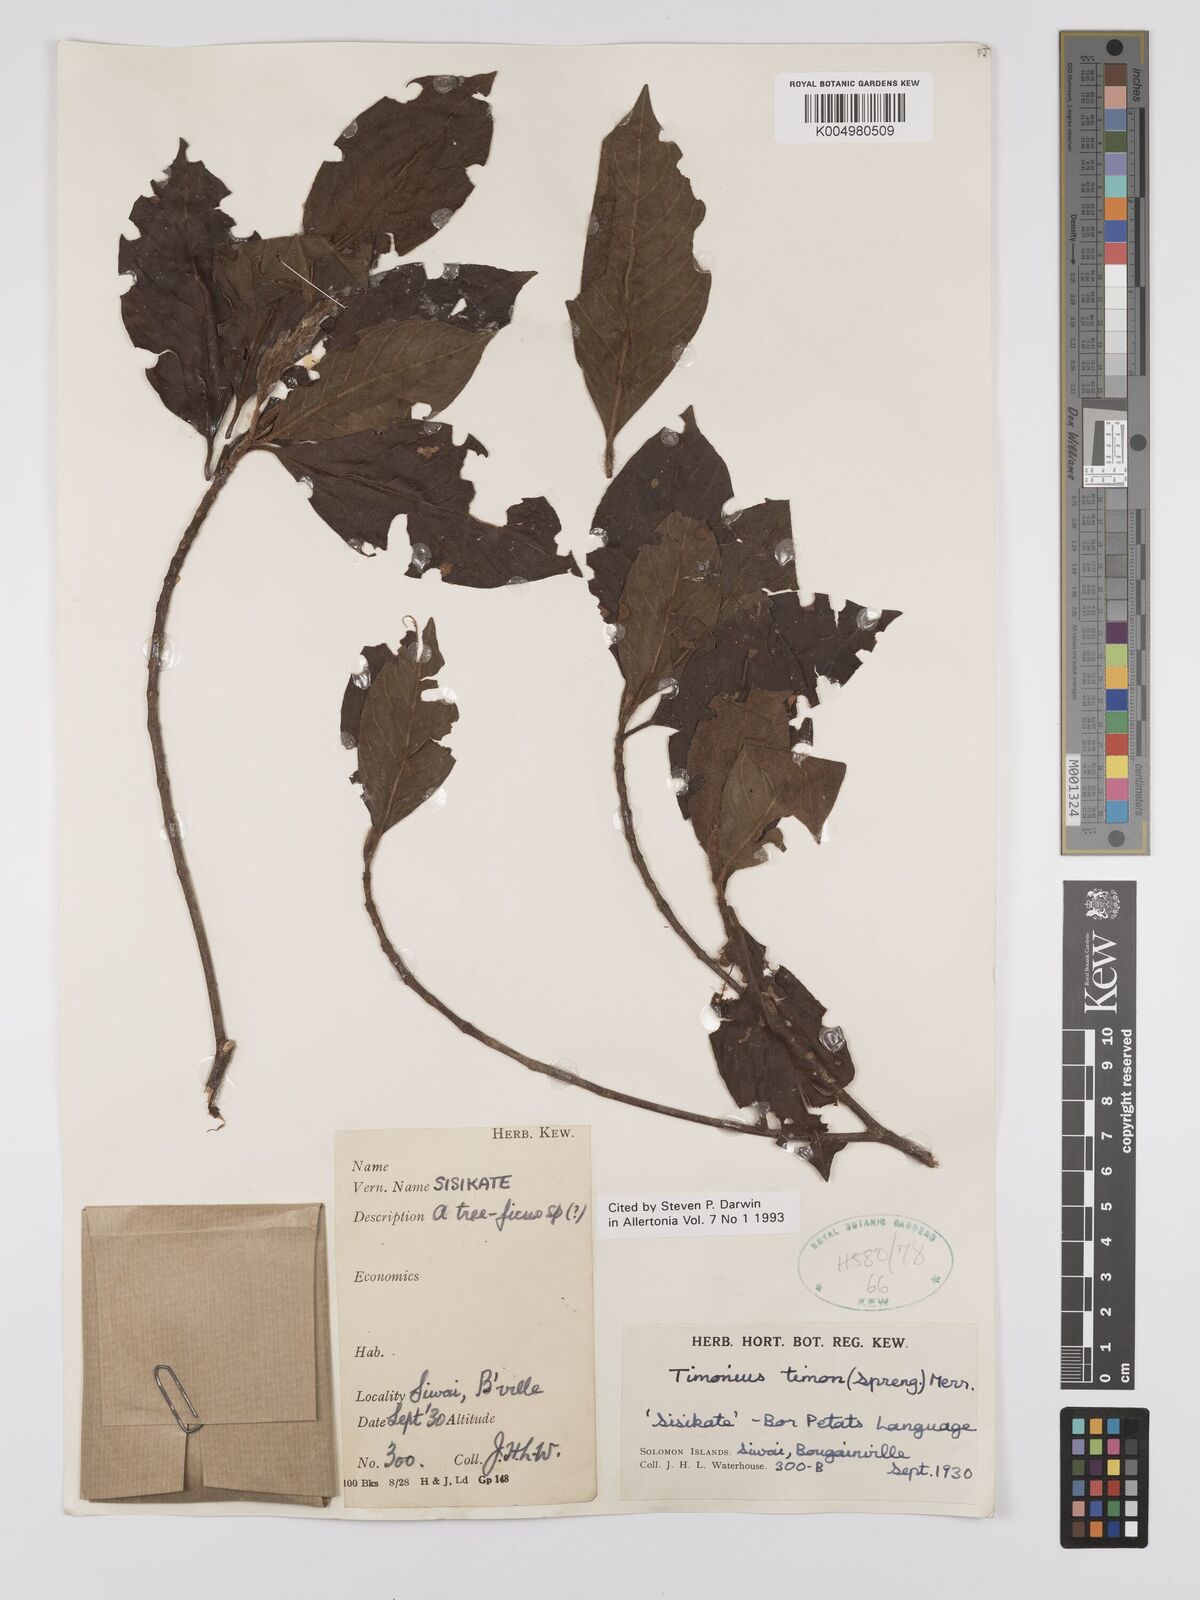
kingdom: Plantae
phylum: Tracheophyta
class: Magnoliopsida
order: Gentianales
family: Rubiaceae
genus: Timonius
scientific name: Timonius timon
